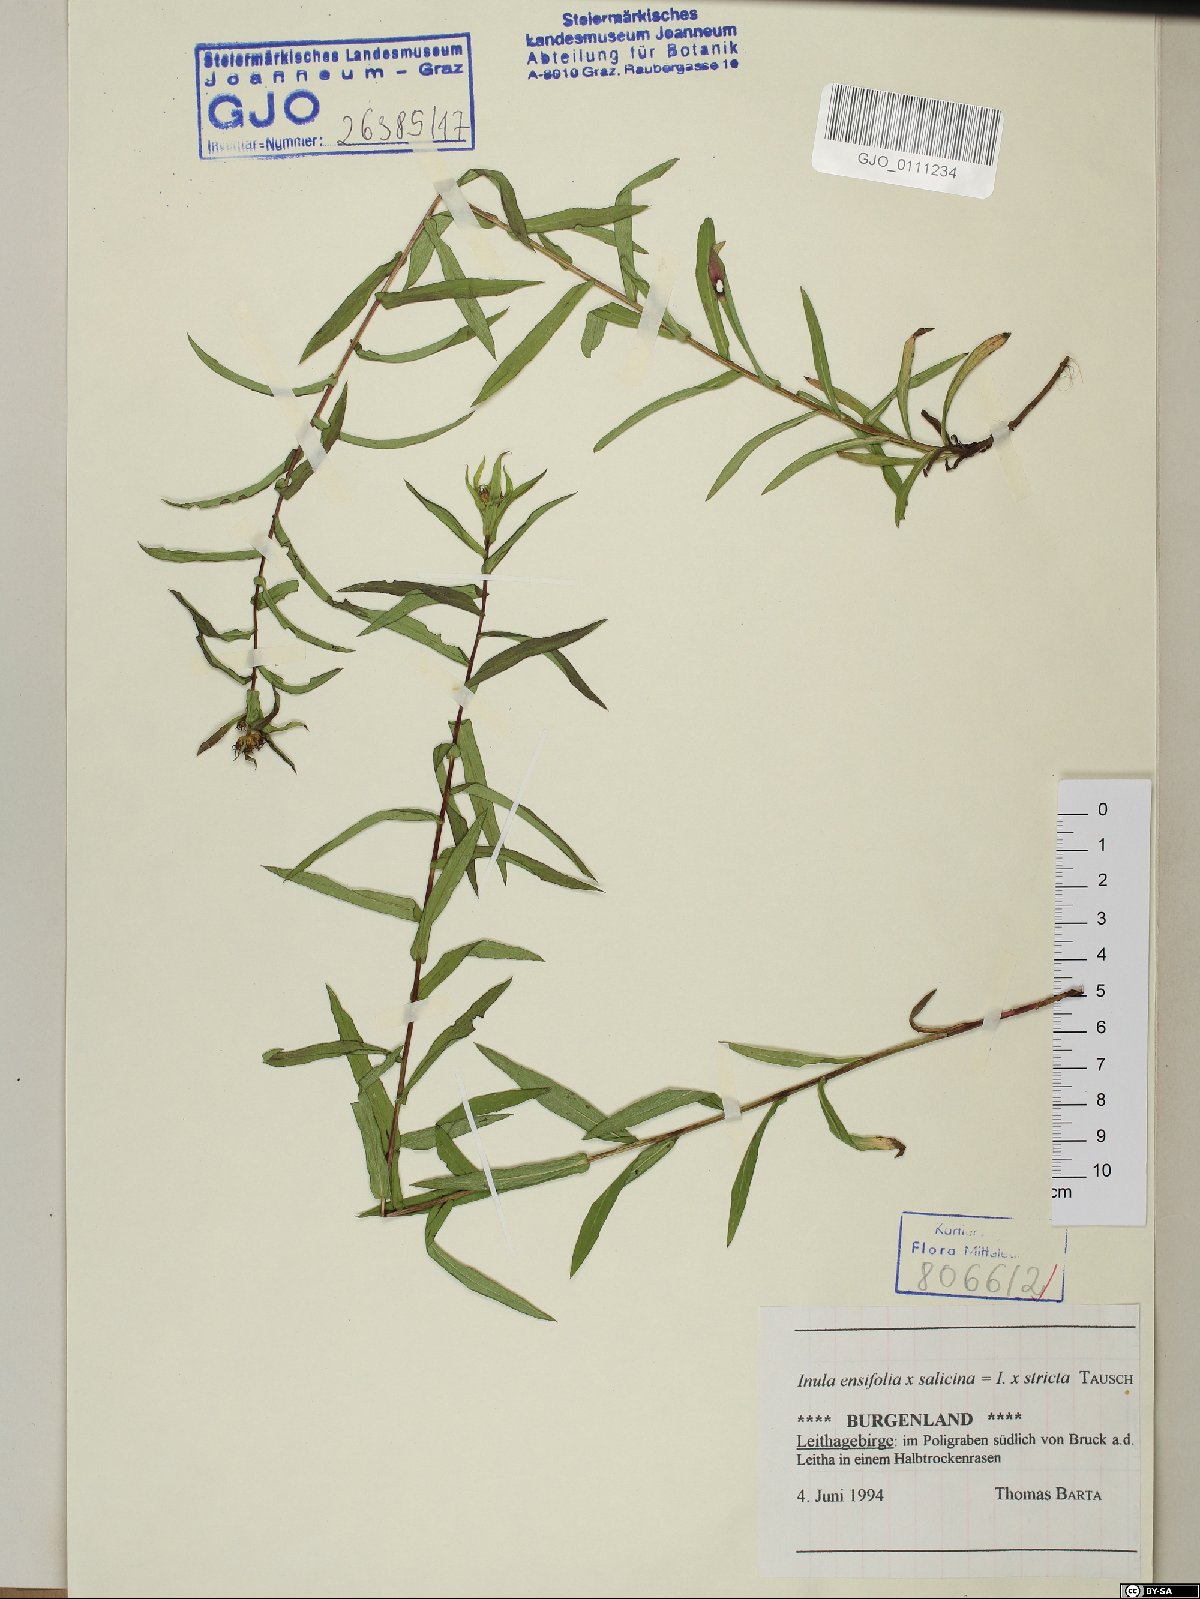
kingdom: Plantae
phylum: Tracheophyta
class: Magnoliopsida
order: Asterales
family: Asteraceae
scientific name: Asteraceae
